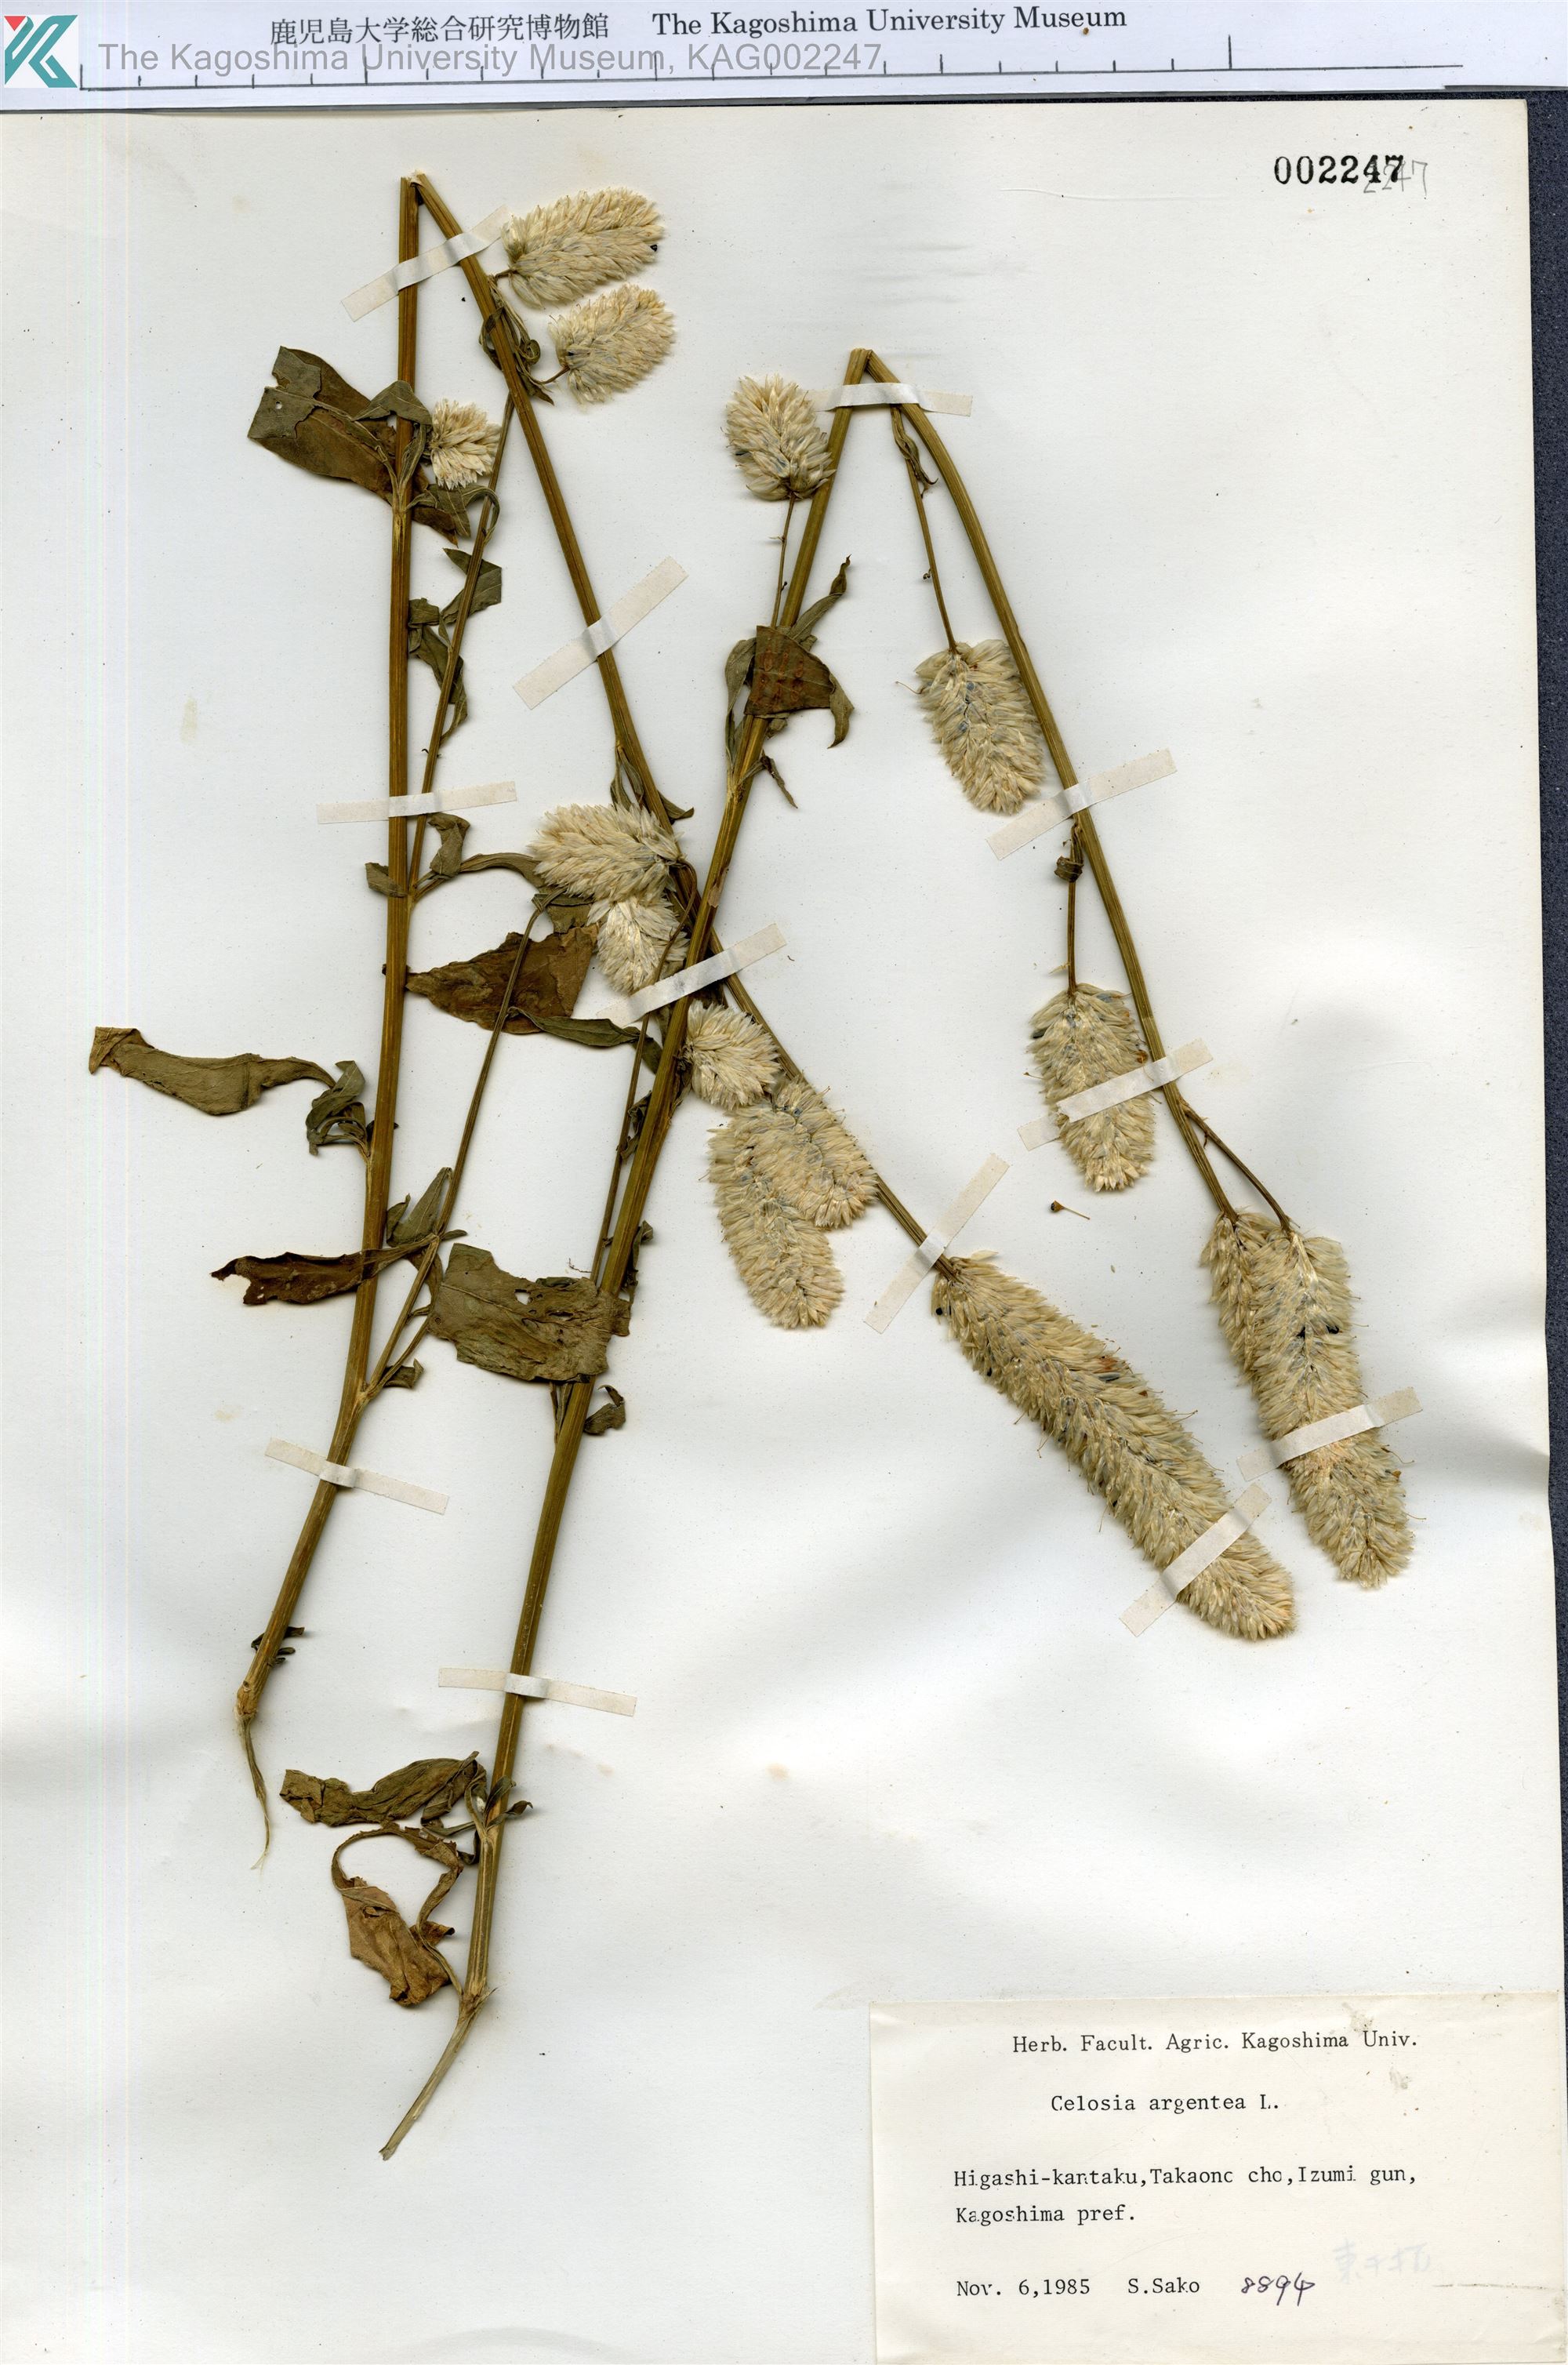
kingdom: Plantae
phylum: Tracheophyta
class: Magnoliopsida
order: Caryophyllales
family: Amaranthaceae
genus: Celosia
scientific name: Celosia argentea
